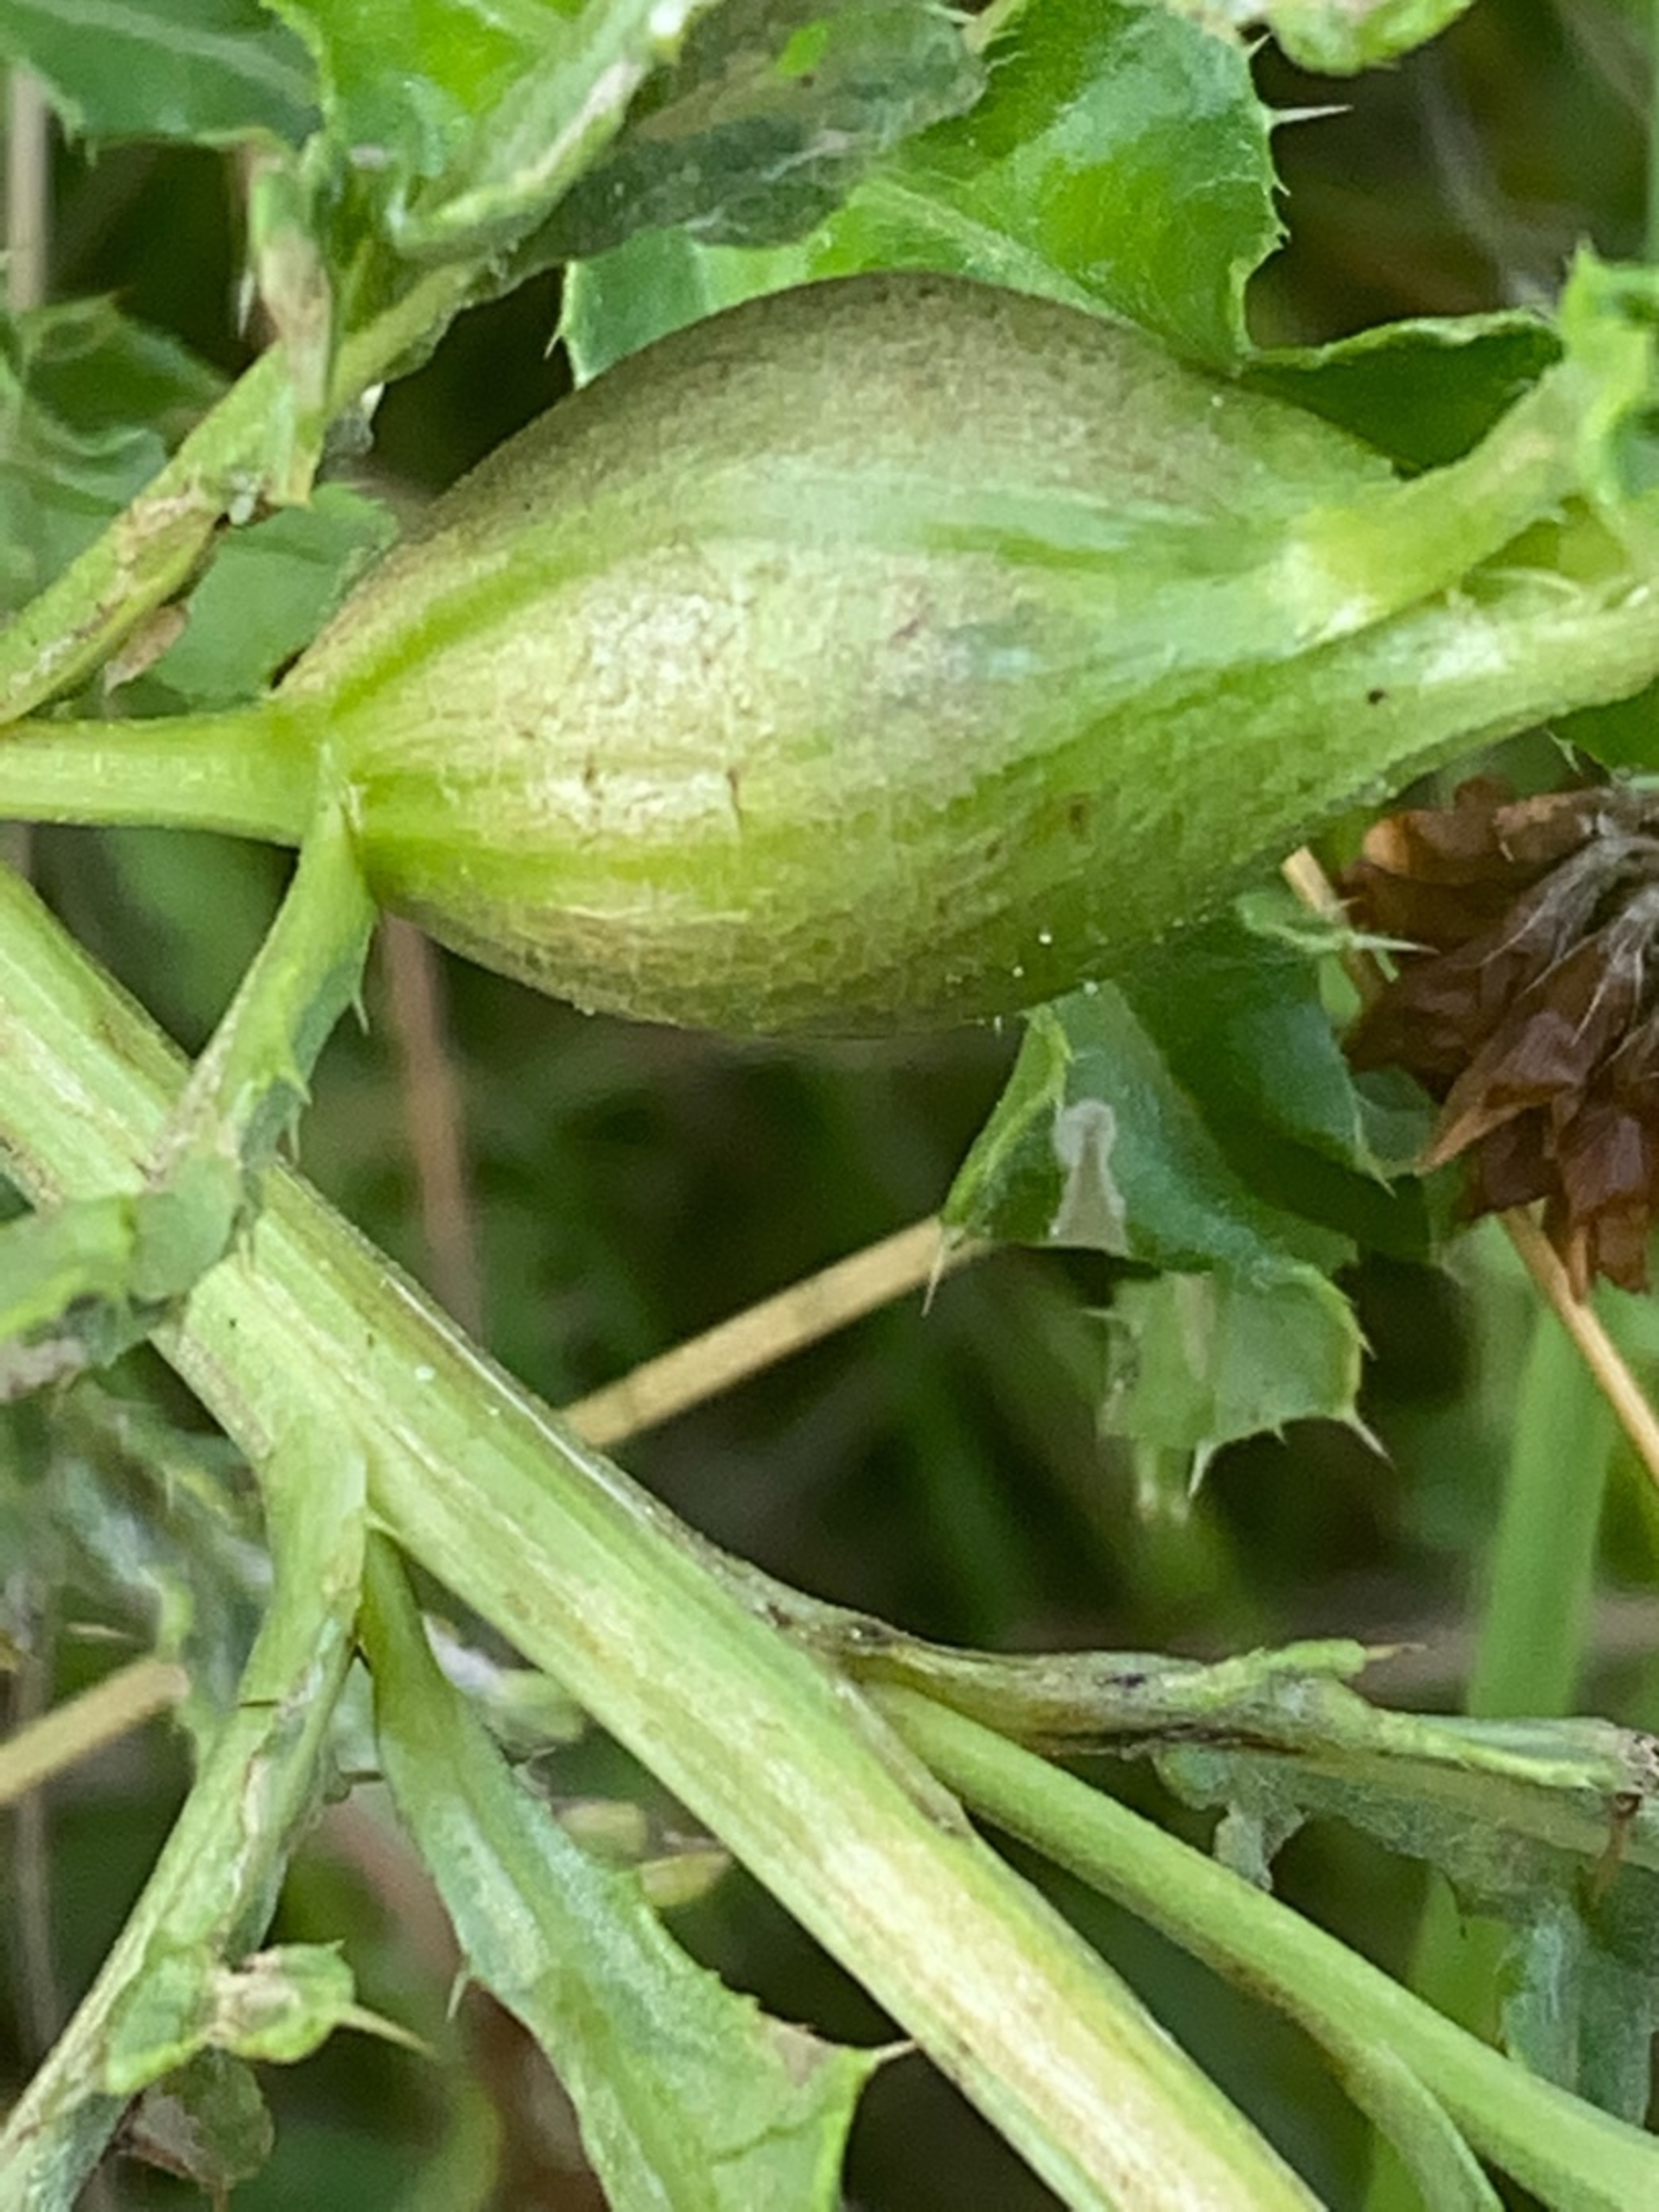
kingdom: Animalia
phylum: Arthropoda
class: Insecta
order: Diptera
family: Tephritidae
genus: Urophora
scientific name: Urophora cardui
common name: Tidselbåndflue
